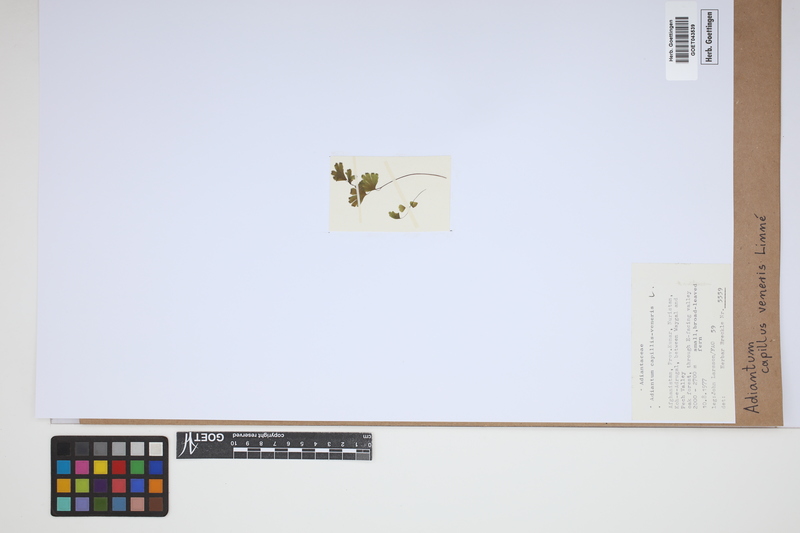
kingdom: Plantae
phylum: Tracheophyta
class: Polypodiopsida
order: Polypodiales
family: Pteridaceae
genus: Adiantum
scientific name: Adiantum capillus-veneris
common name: Maidenhair fern
